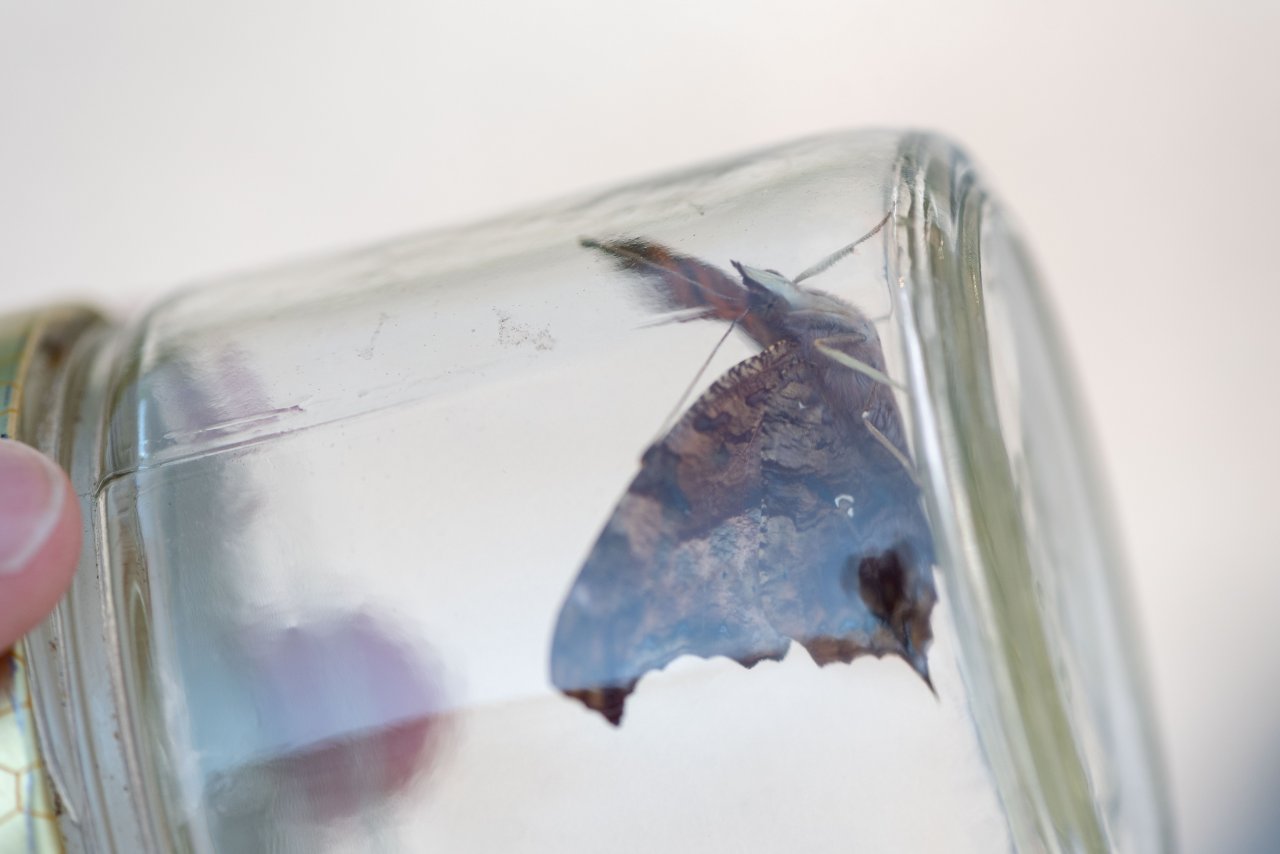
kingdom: Animalia
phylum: Arthropoda
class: Insecta
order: Lepidoptera
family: Nymphalidae
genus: Polygonia
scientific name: Polygonia interrogationis
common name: Question Mark
